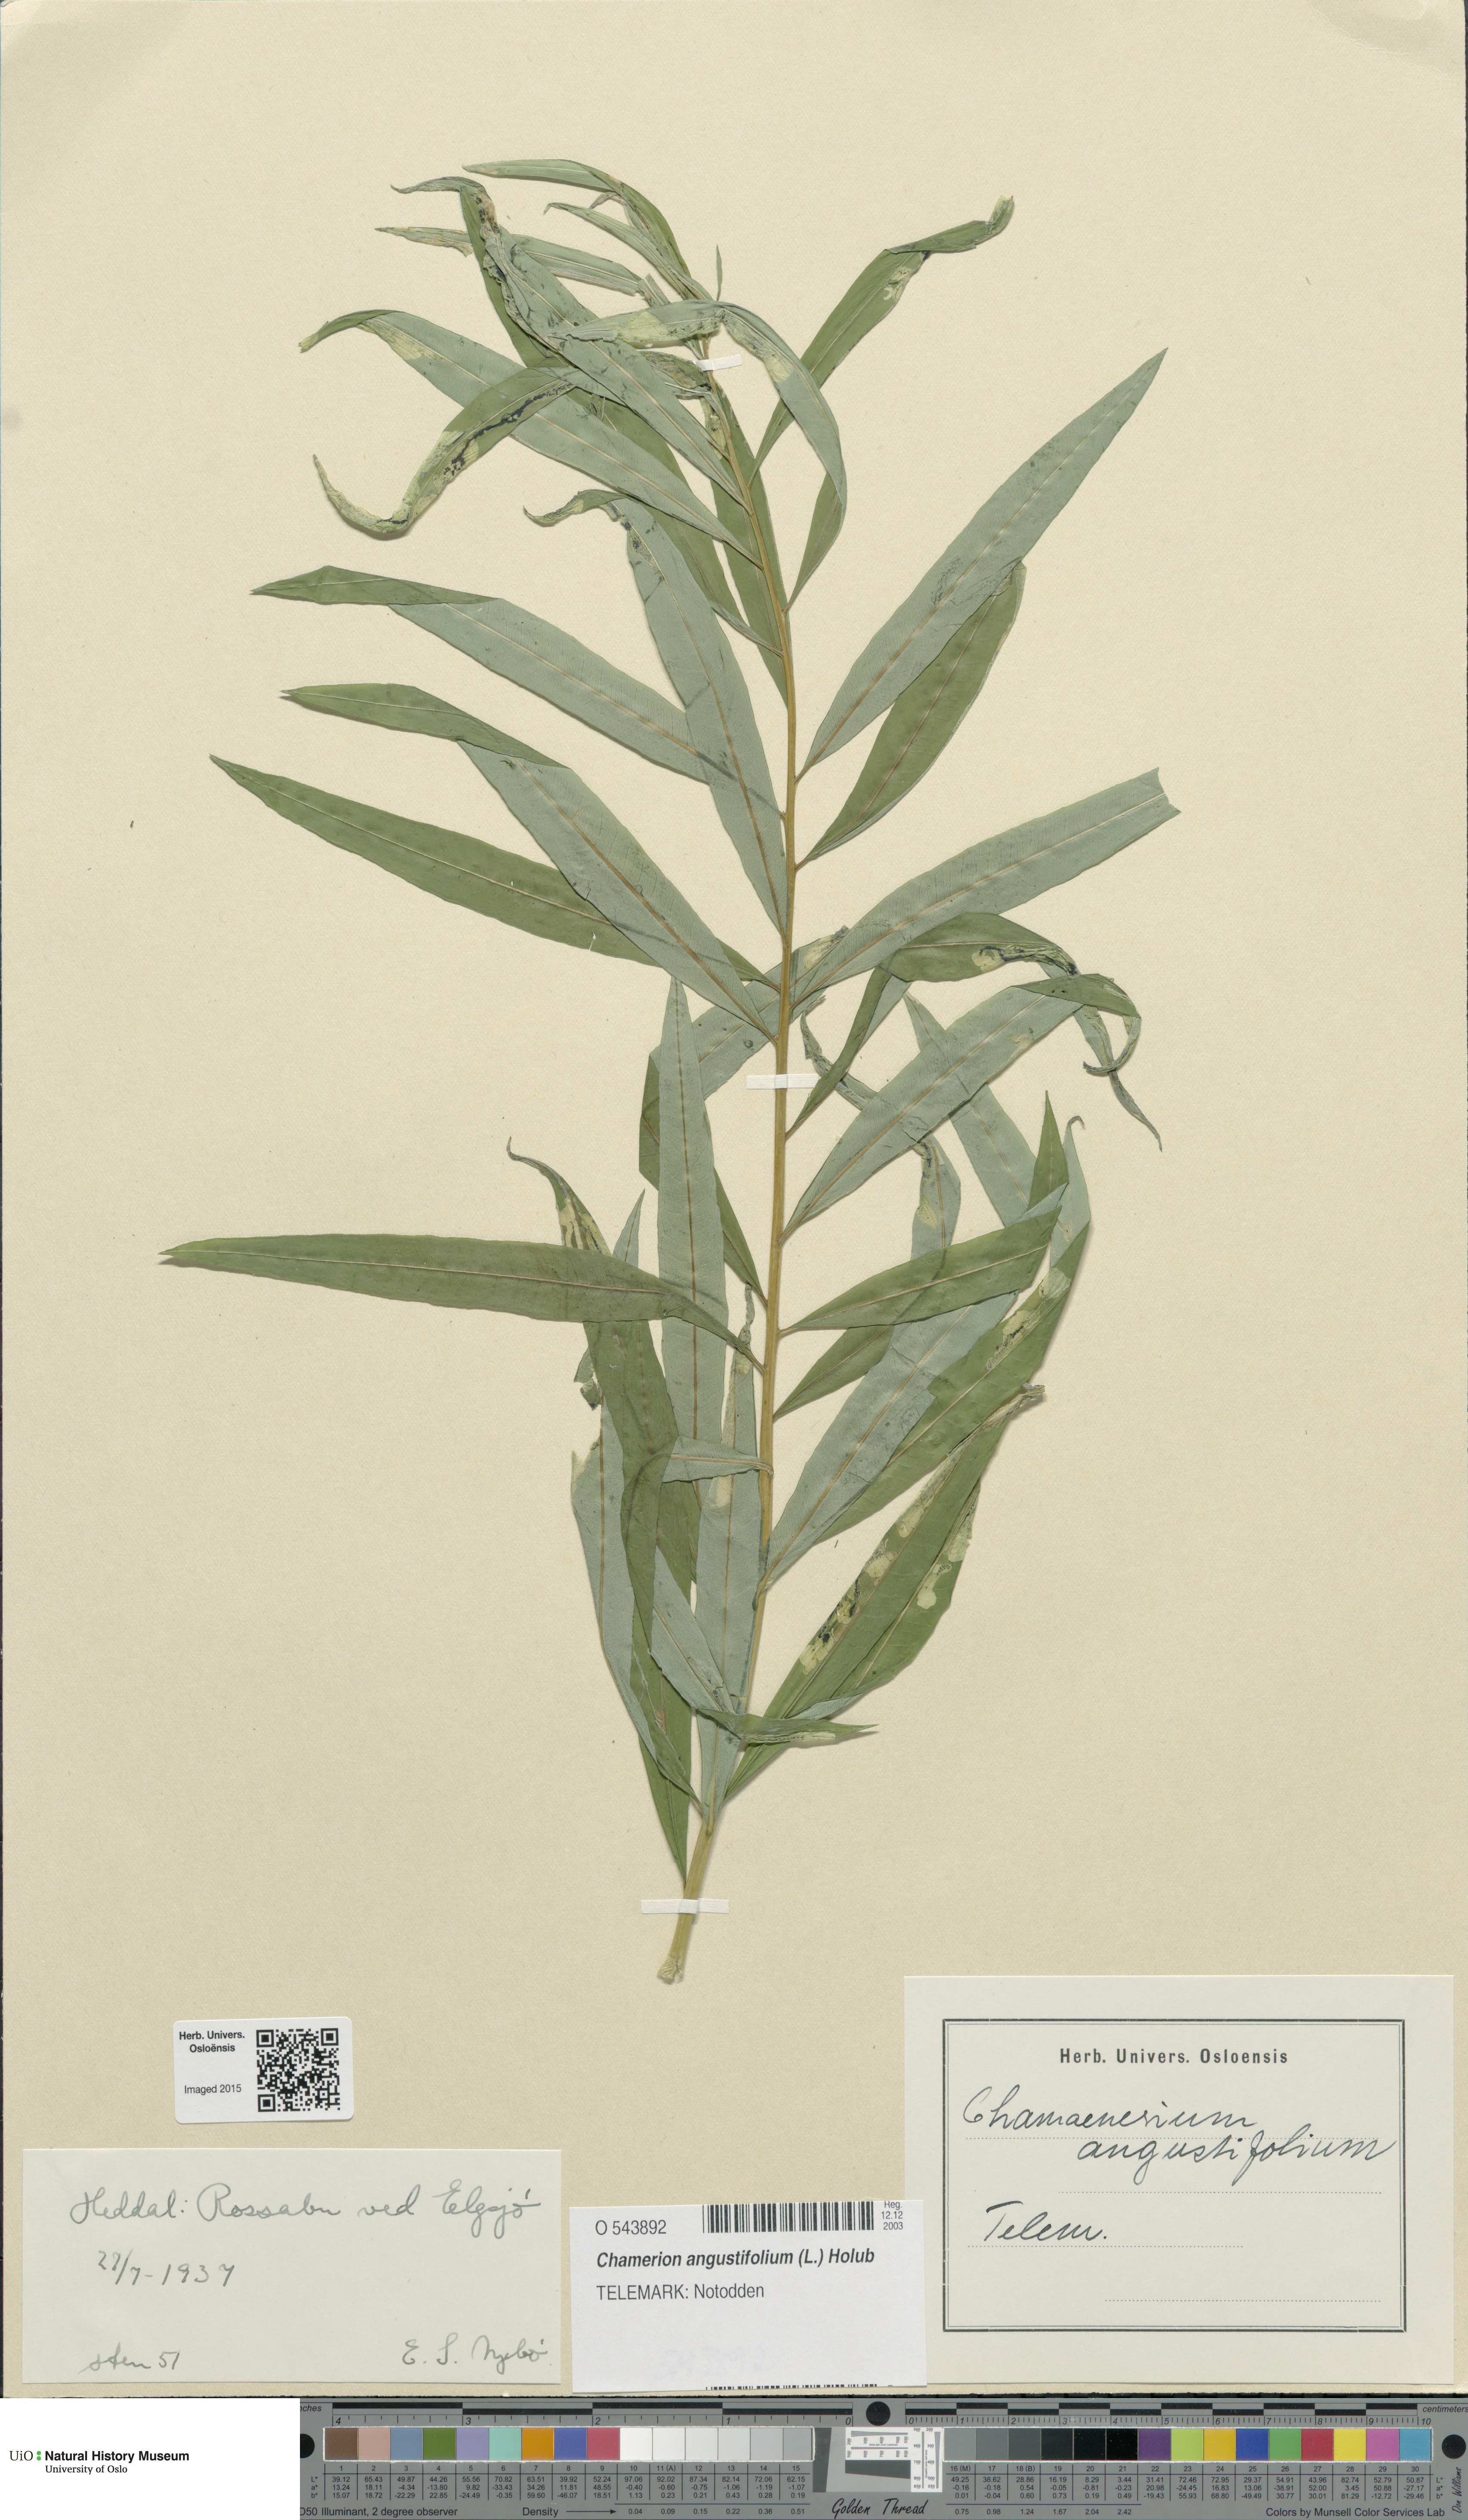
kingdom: Plantae
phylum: Tracheophyta
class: Magnoliopsida
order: Myrtales
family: Onagraceae
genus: Chamaenerion
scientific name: Chamaenerion angustifolium
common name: Fireweed
